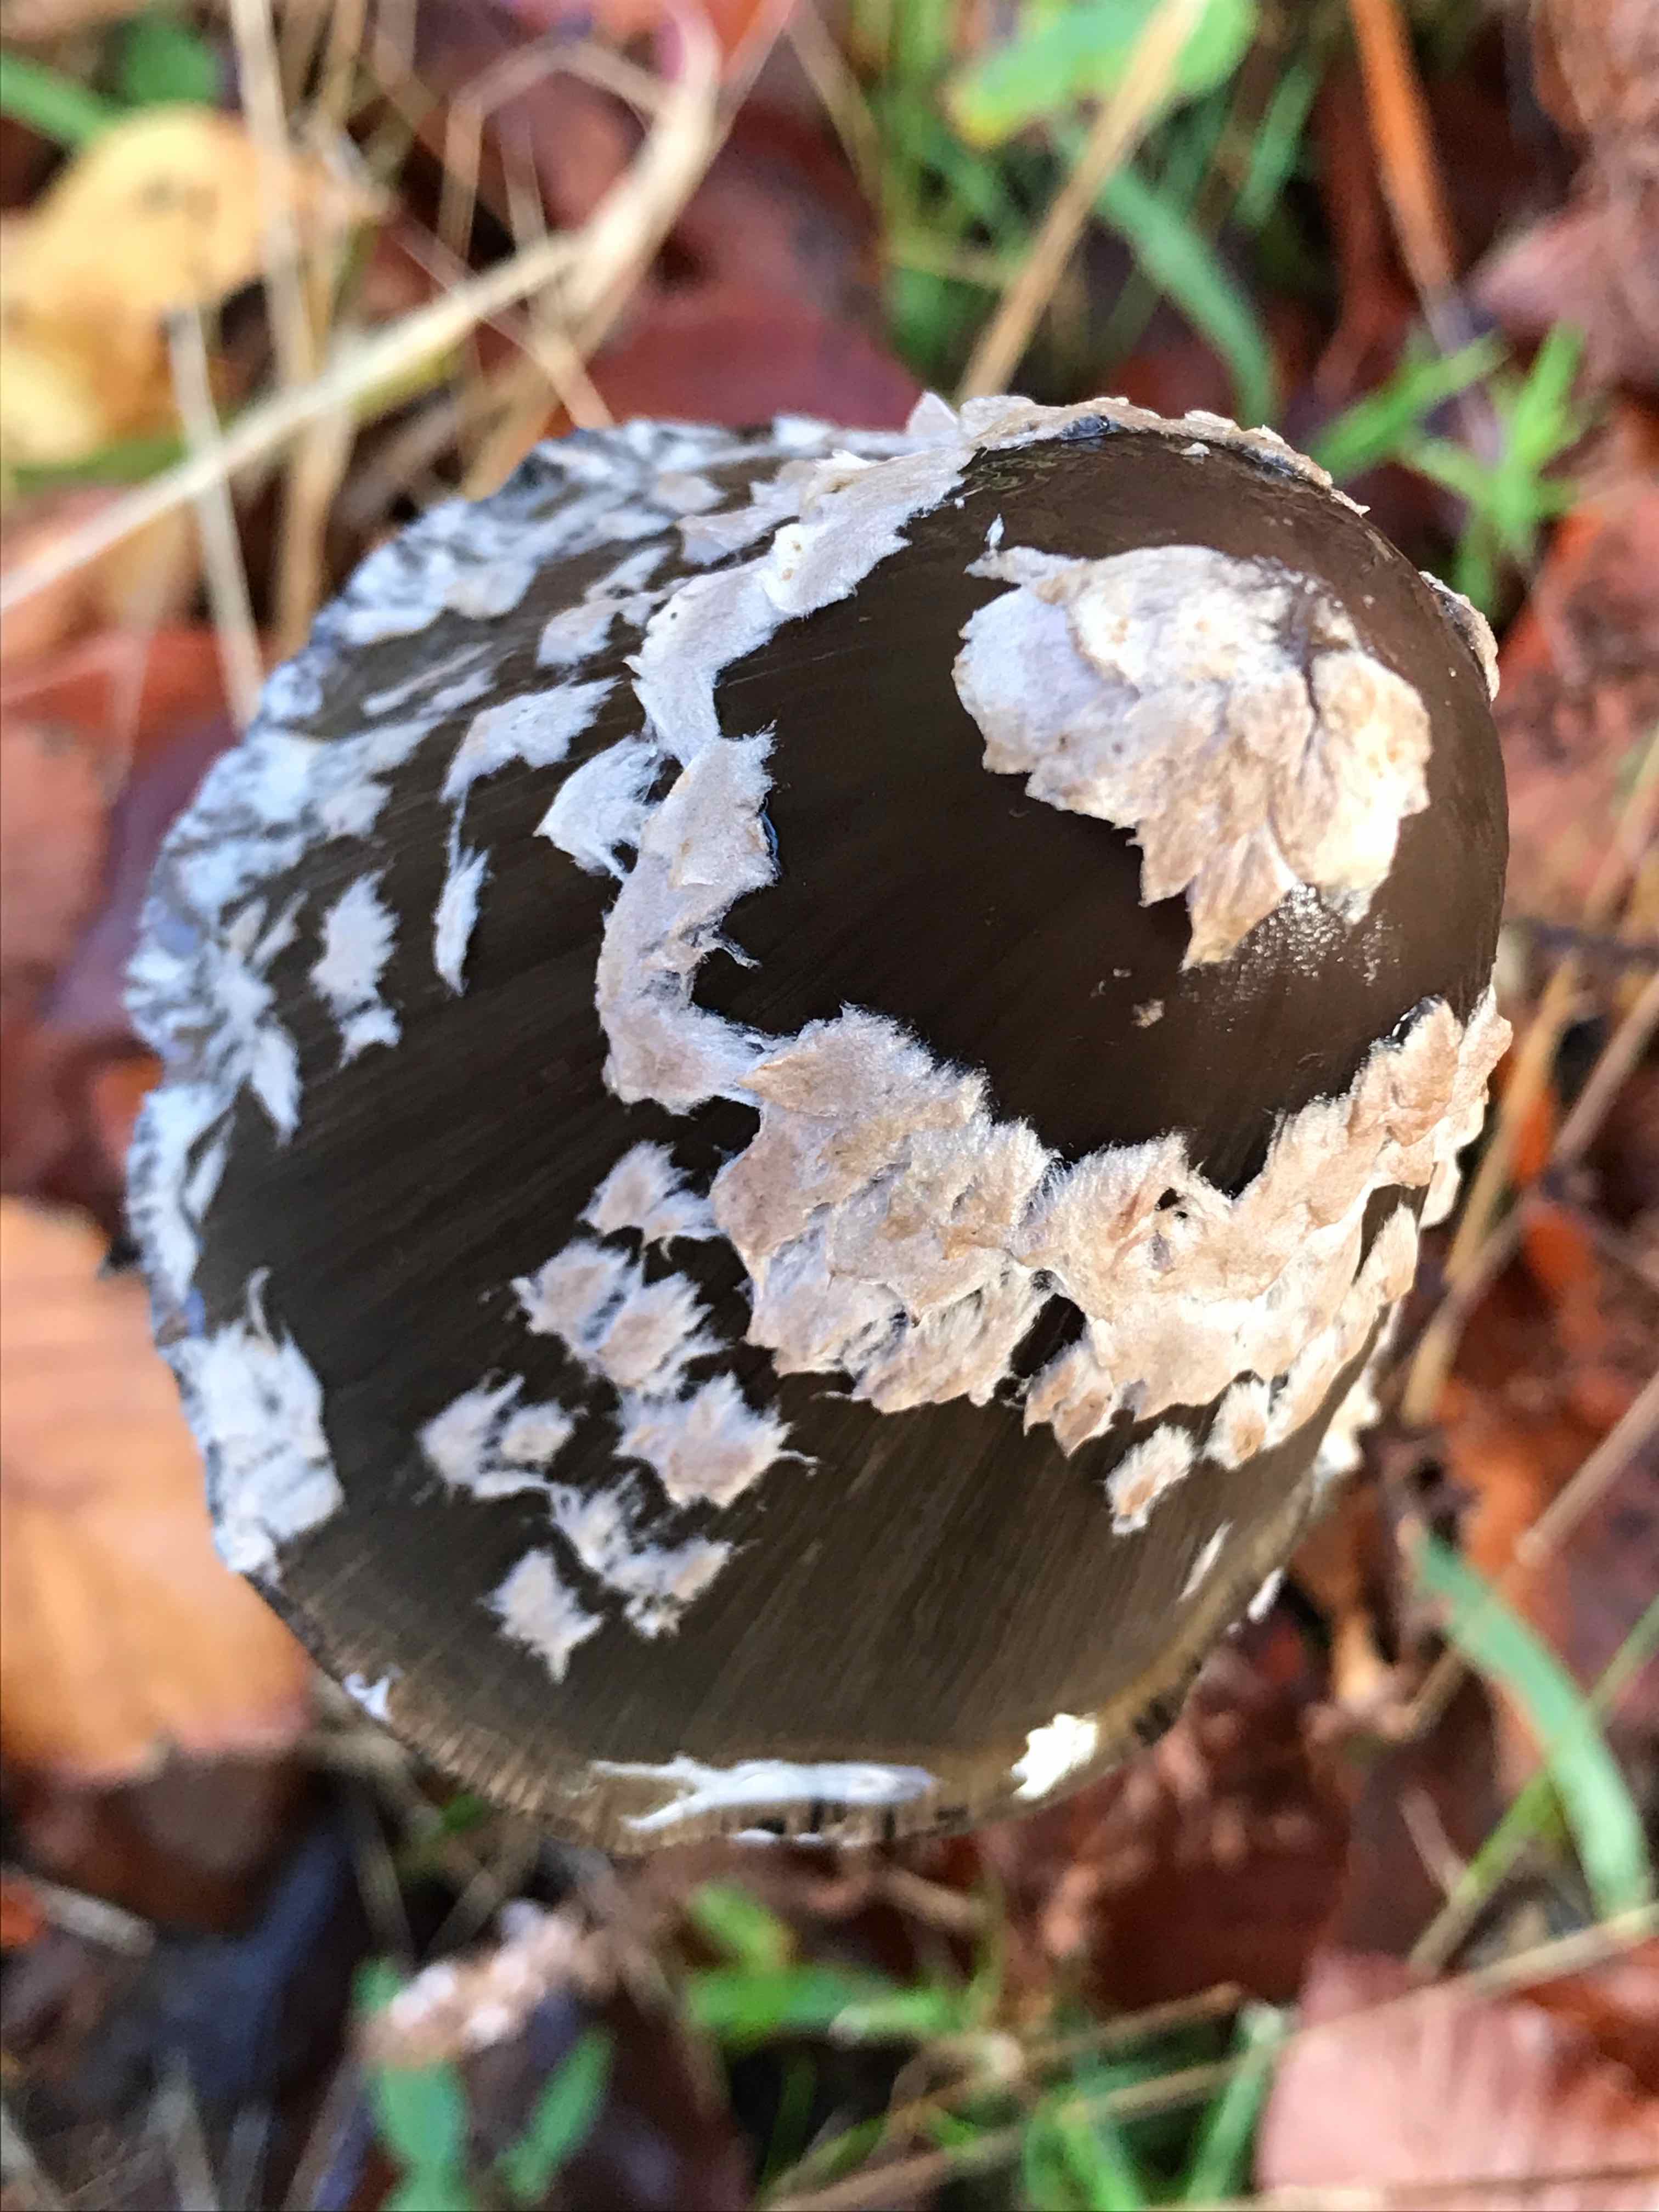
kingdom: Fungi
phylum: Basidiomycota
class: Agaricomycetes
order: Agaricales
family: Psathyrellaceae
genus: Coprinopsis
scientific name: Coprinopsis picacea
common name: skade-blækhat
